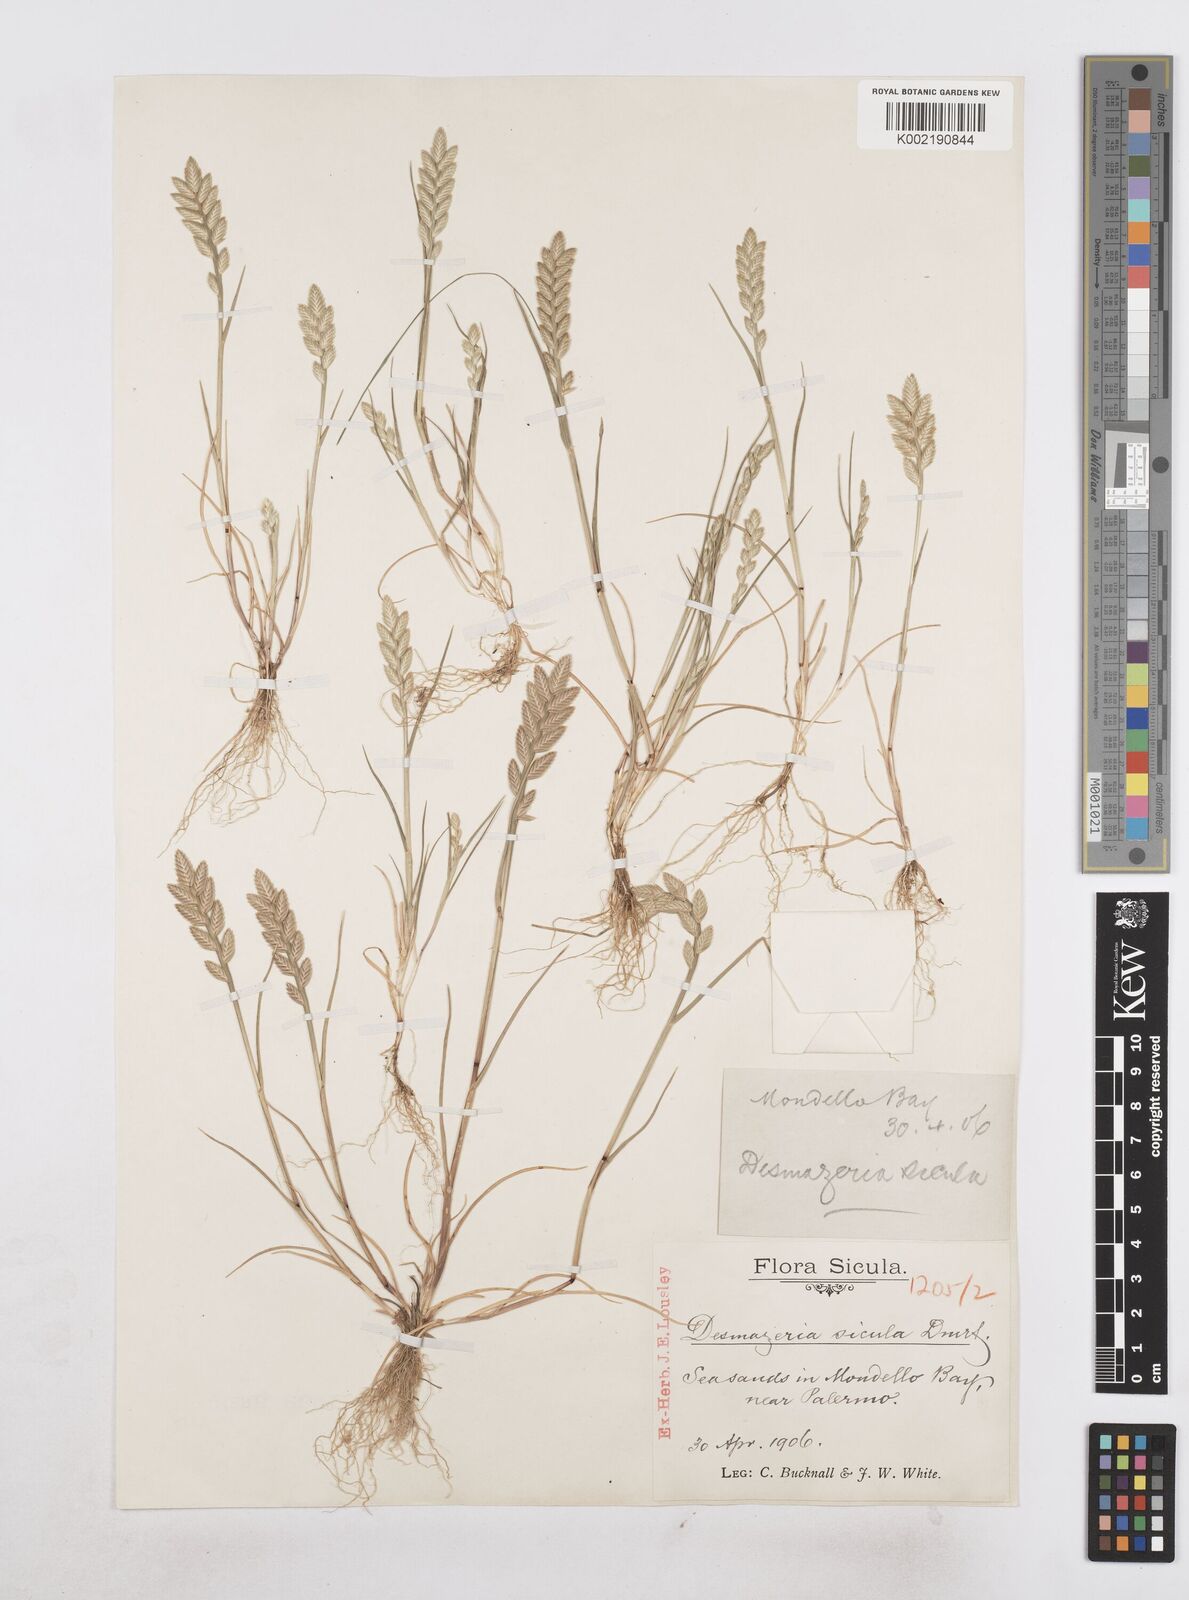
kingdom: Plantae
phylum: Tracheophyta
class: Liliopsida
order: Poales
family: Poaceae
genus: Desmazeria
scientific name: Desmazeria sicula
